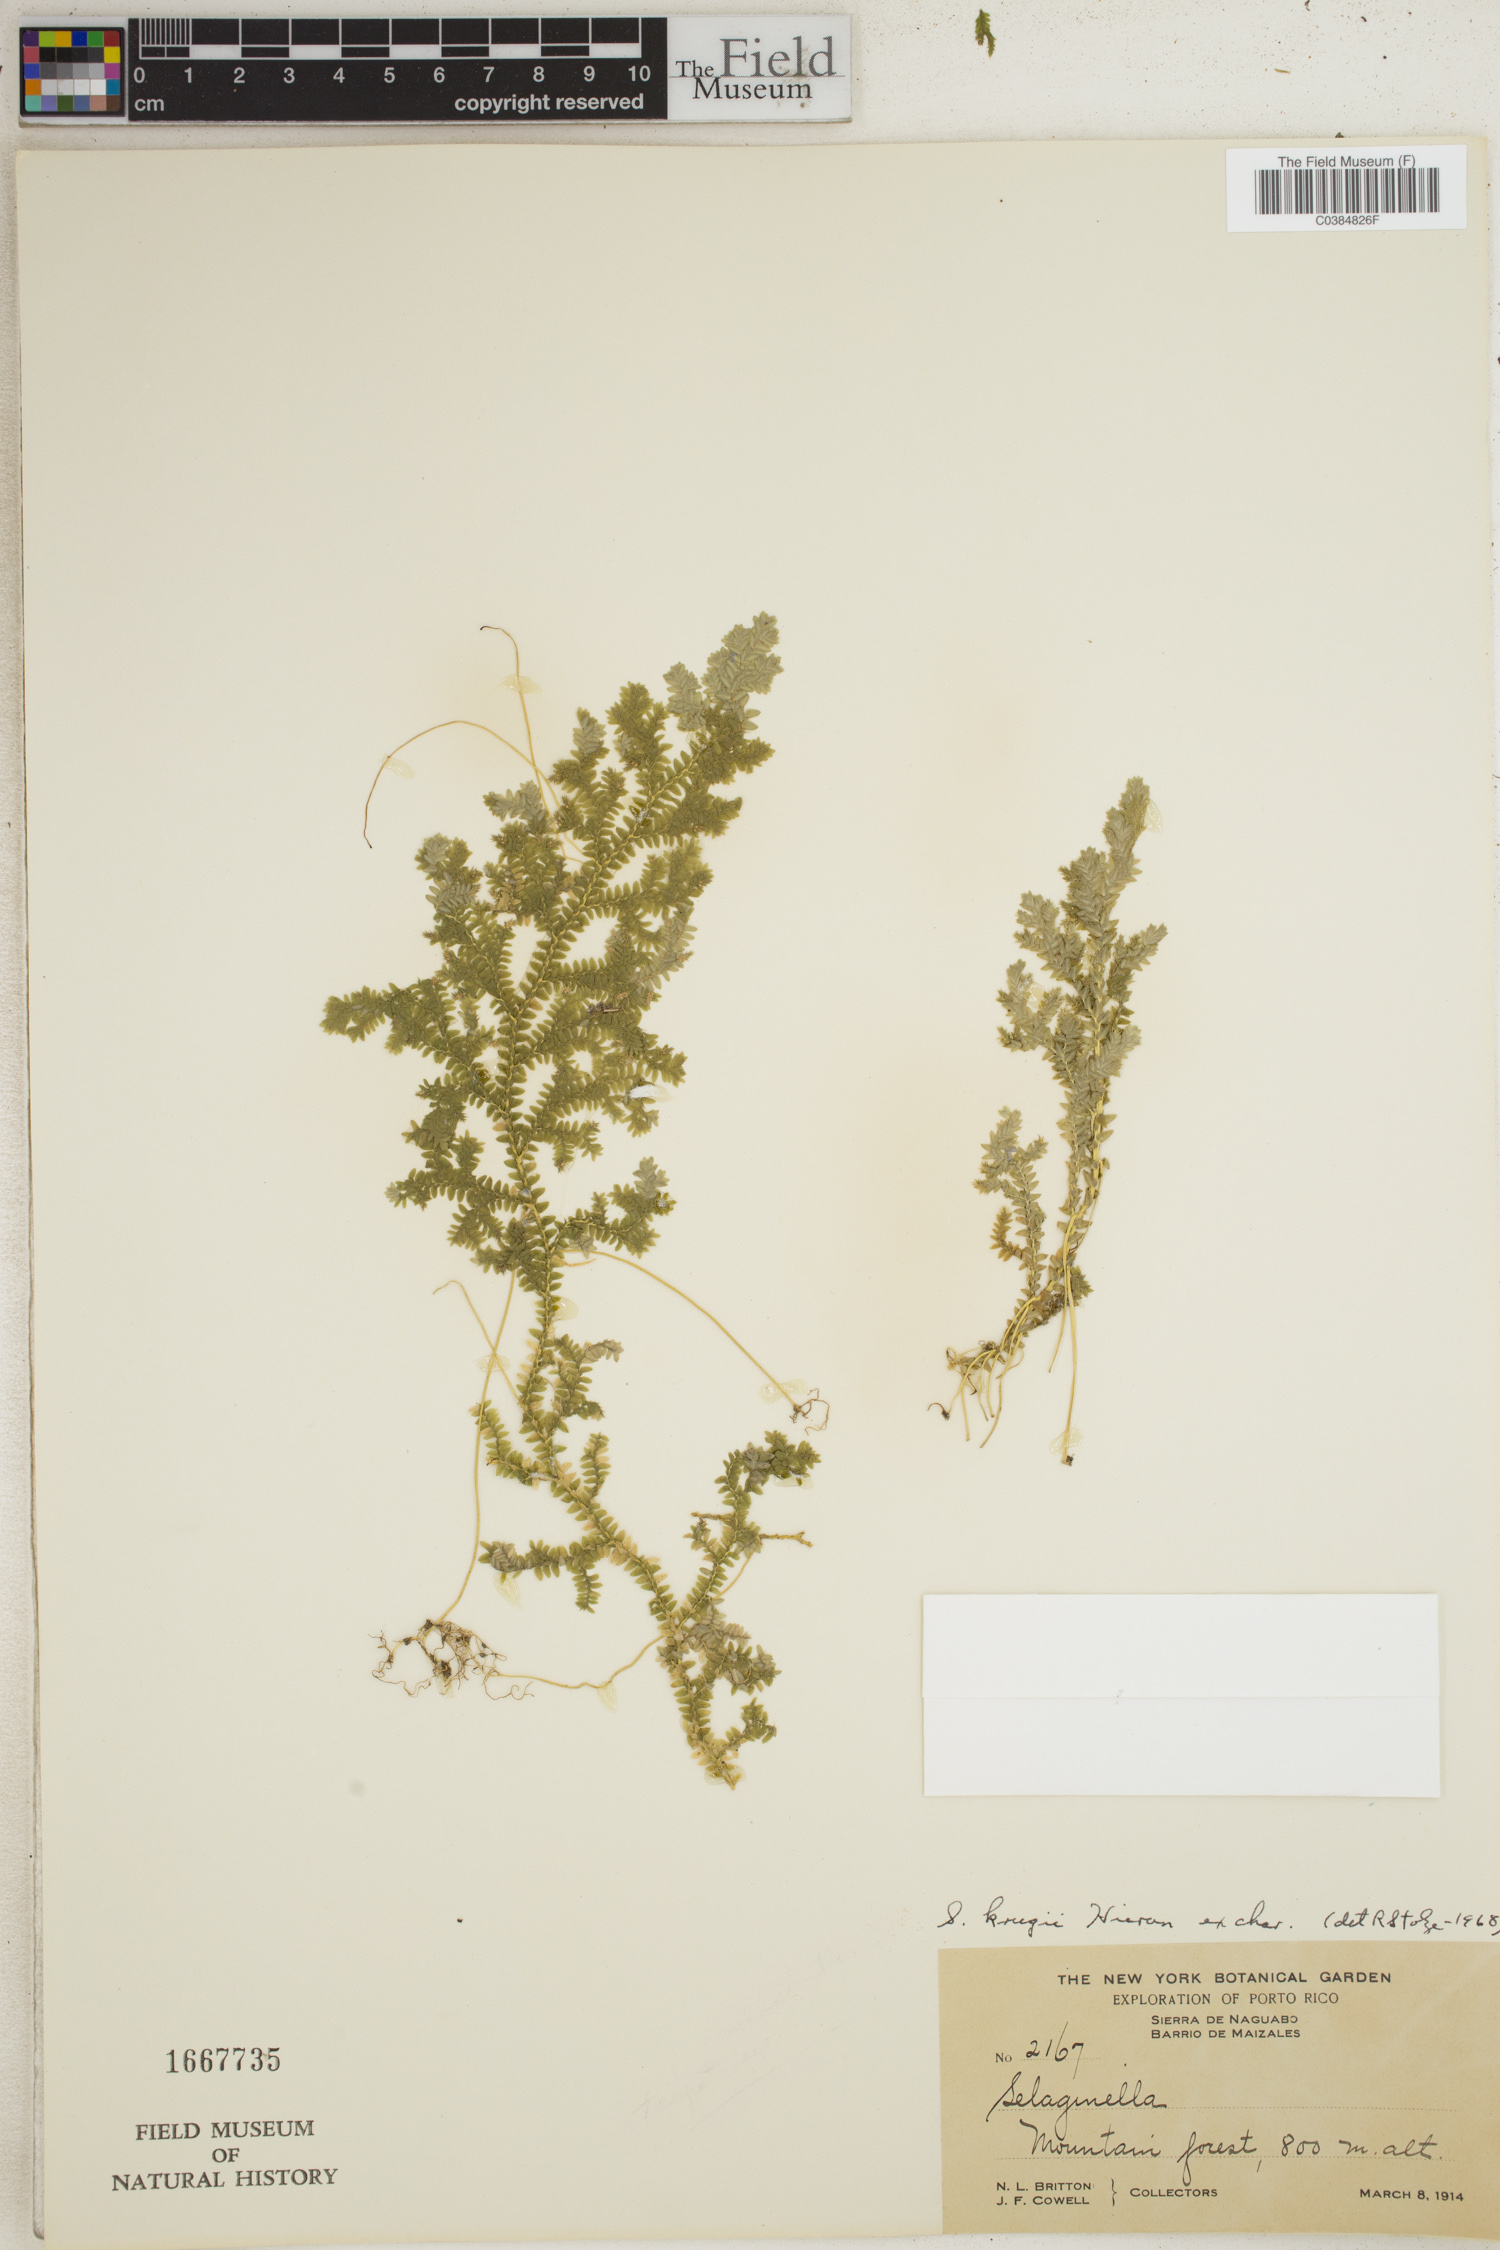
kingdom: Plantae
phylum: Tracheophyta
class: Lycopodiopsida
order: Selaginellales
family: Selaginellaceae
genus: Selaginella
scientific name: Selaginella krugii
